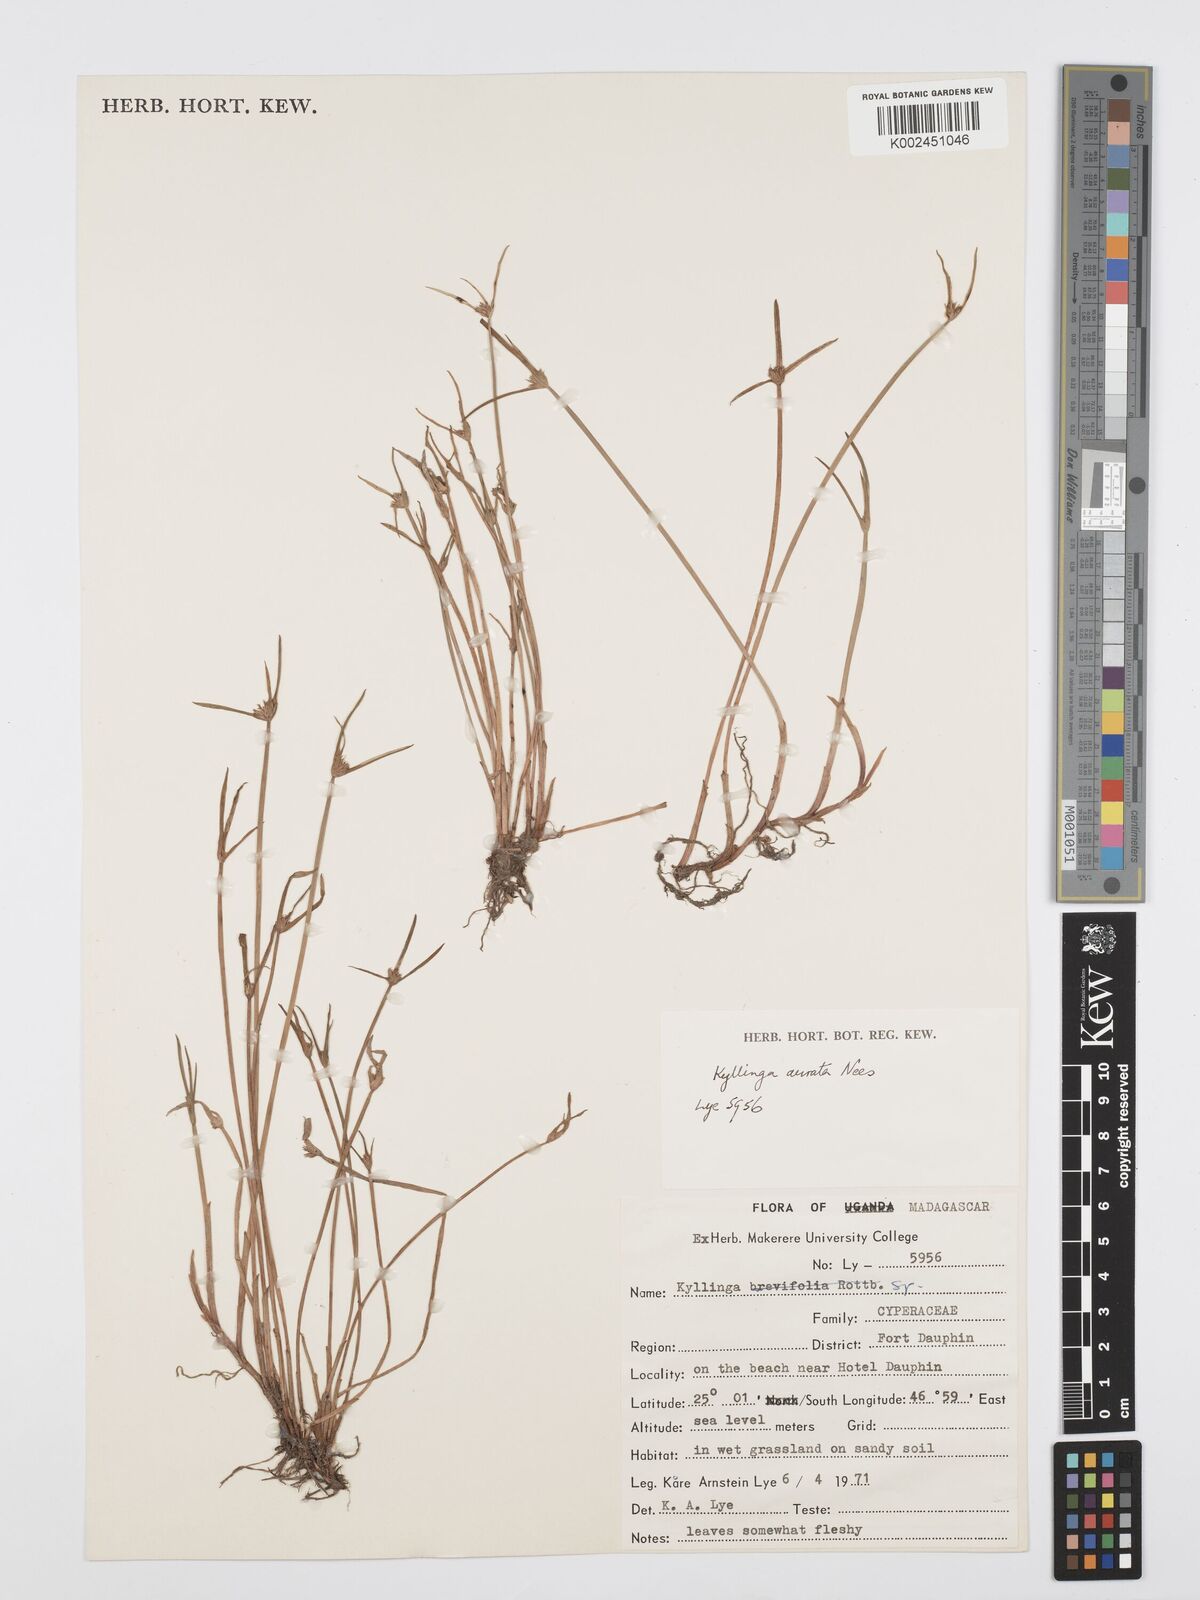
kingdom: Plantae
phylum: Tracheophyta
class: Liliopsida
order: Poales
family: Cyperaceae
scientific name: Cyperaceae
